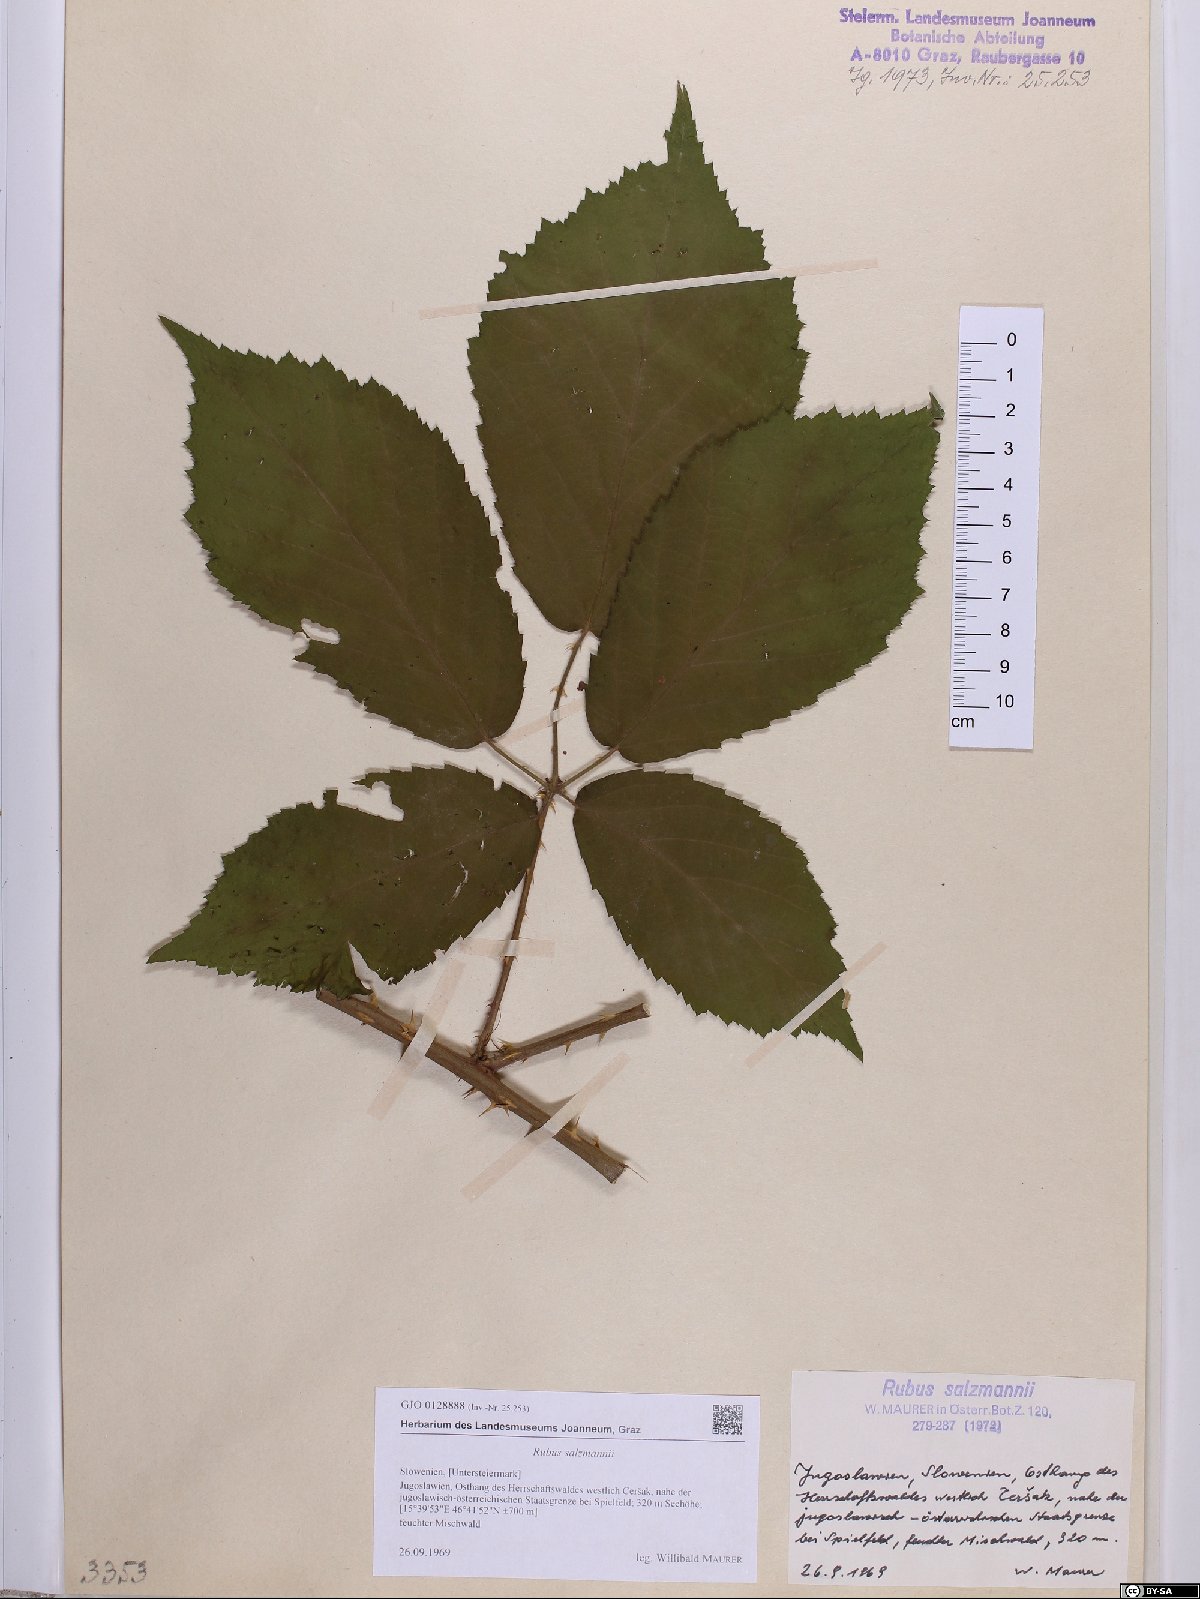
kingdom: Plantae
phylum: Tracheophyta
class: Magnoliopsida
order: Rosales
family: Rosaceae
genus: Rubus
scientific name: Rubus salzmannii
